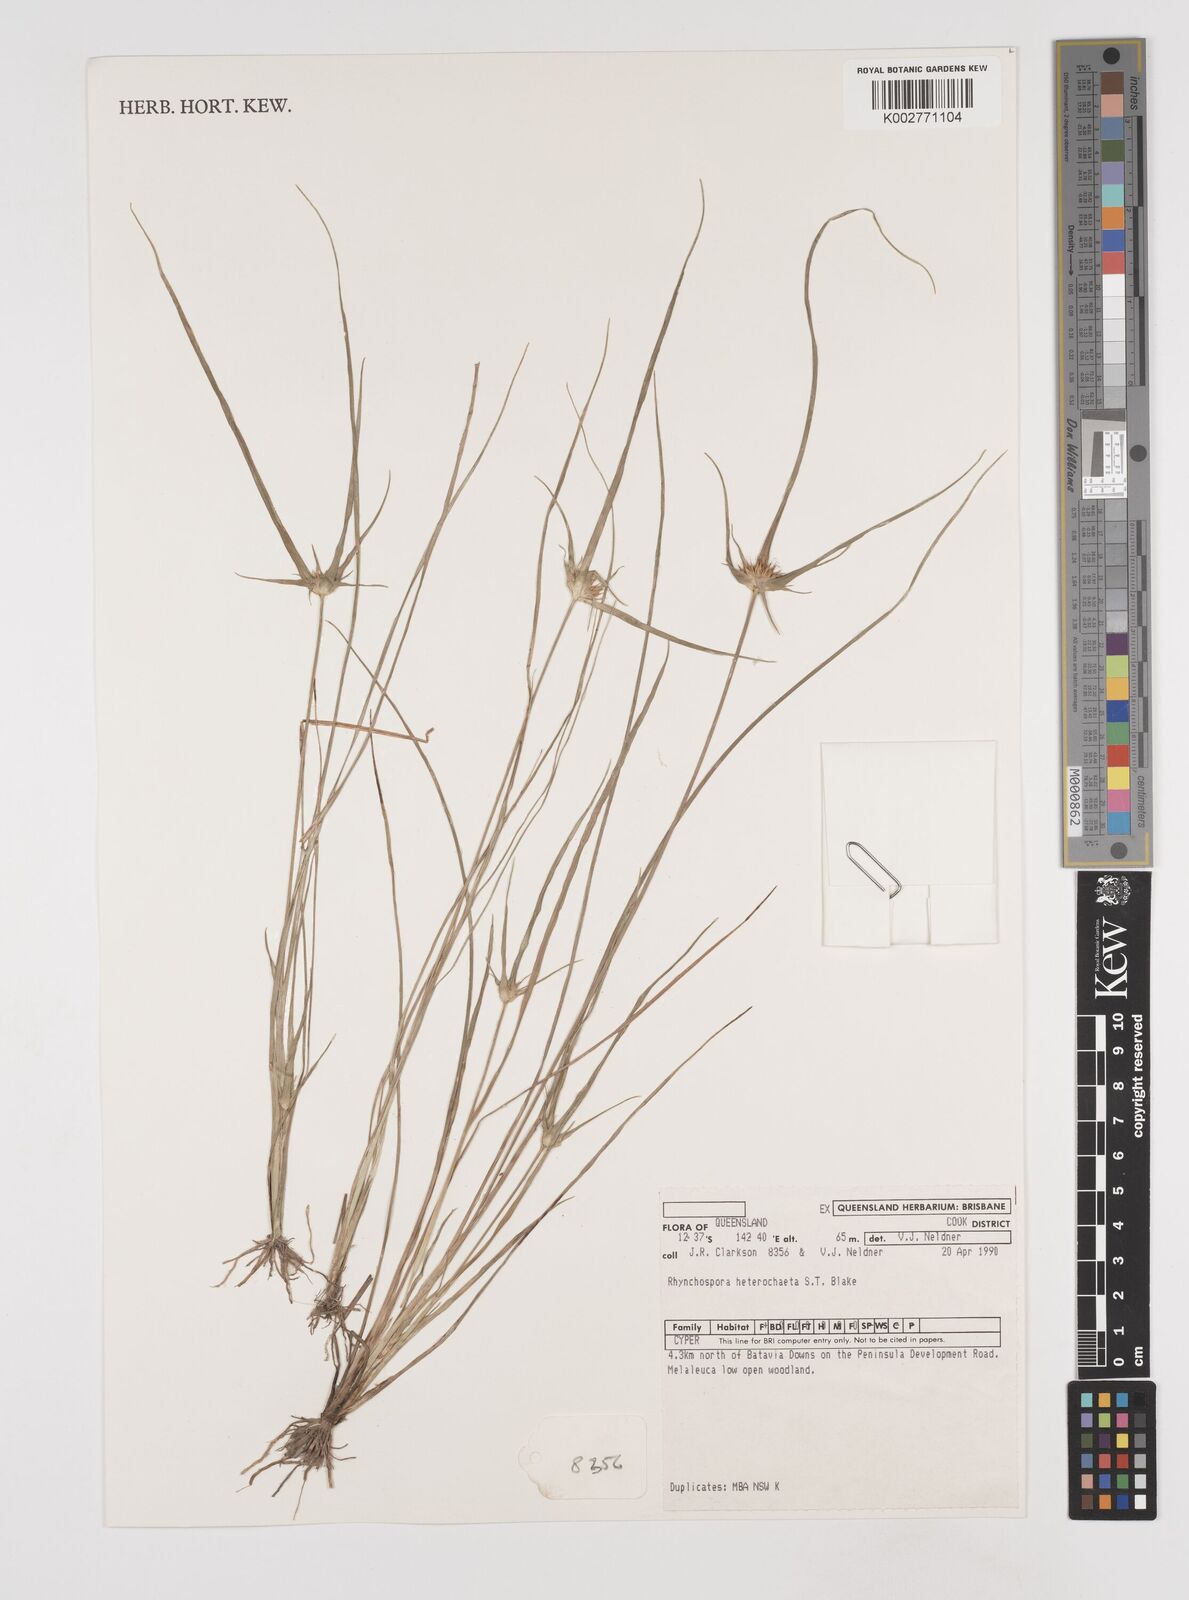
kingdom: Plantae
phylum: Tracheophyta
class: Liliopsida
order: Poales
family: Cyperaceae
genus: Rhynchospora
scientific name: Rhynchospora heterochaeta
